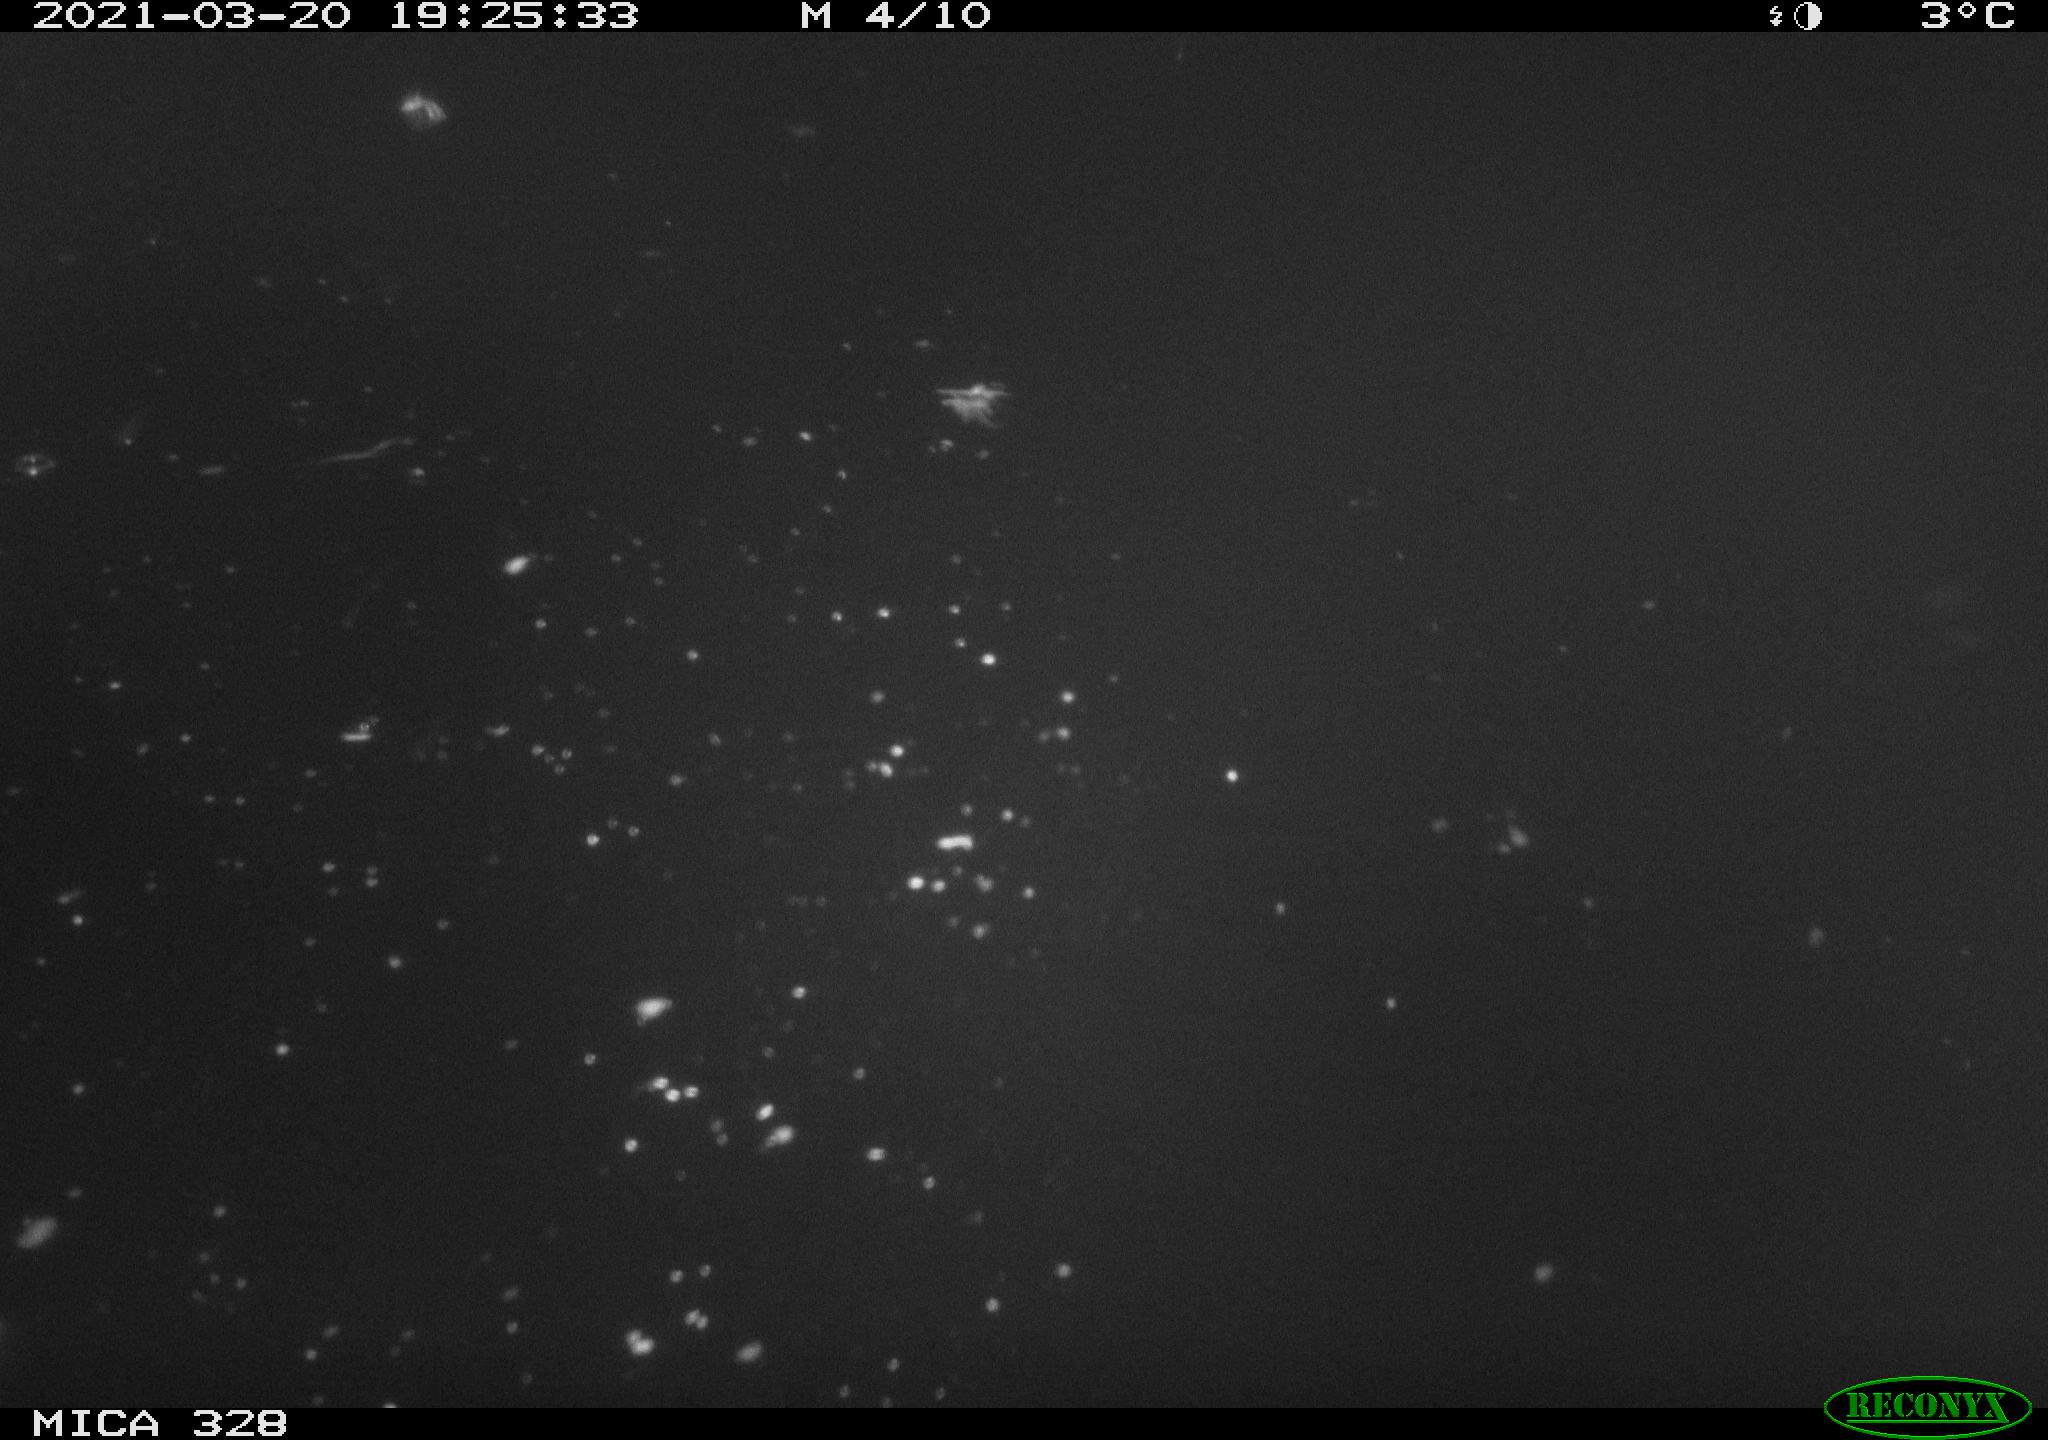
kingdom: Animalia
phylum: Chordata
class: Mammalia
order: Rodentia
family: Cricetidae
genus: Ondatra
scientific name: Ondatra zibethicus
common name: Muskrat
